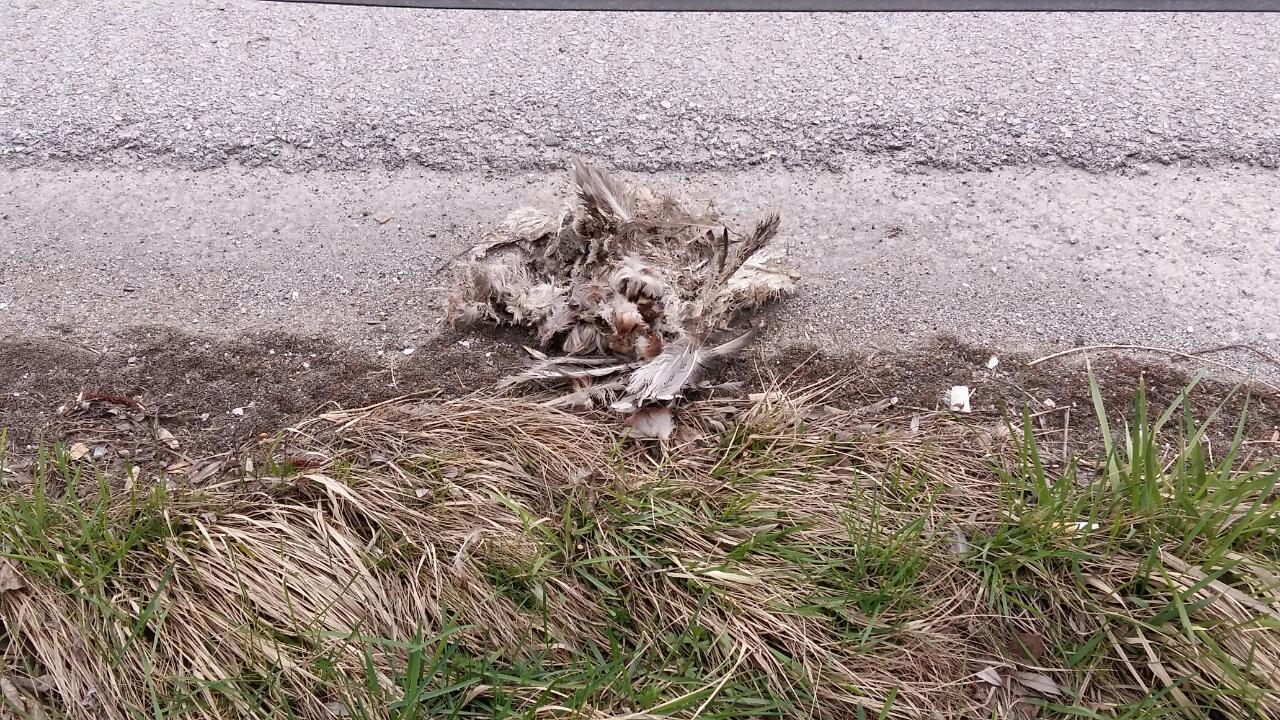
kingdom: Animalia
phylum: Chordata
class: Aves
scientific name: Aves
